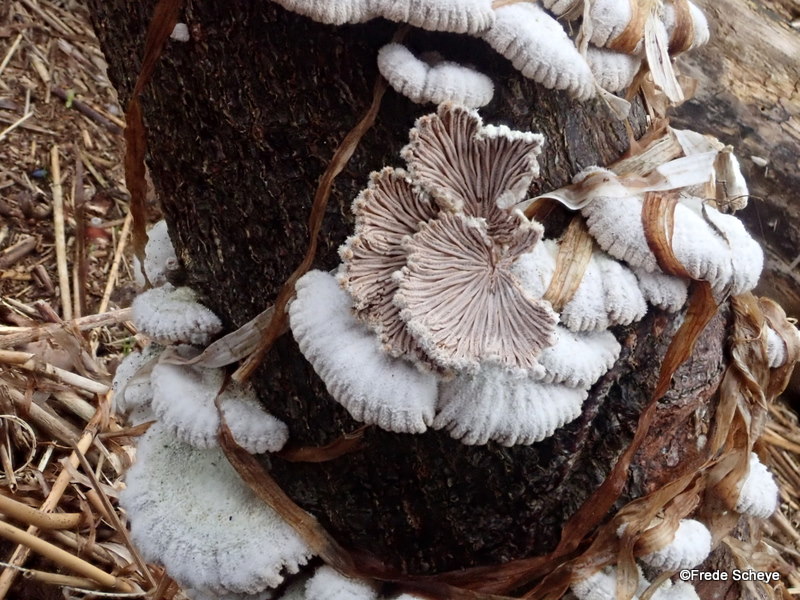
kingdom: Fungi
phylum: Basidiomycota
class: Agaricomycetes
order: Agaricales
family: Schizophyllaceae
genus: Schizophyllum
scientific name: Schizophyllum commune
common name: kløvblad
